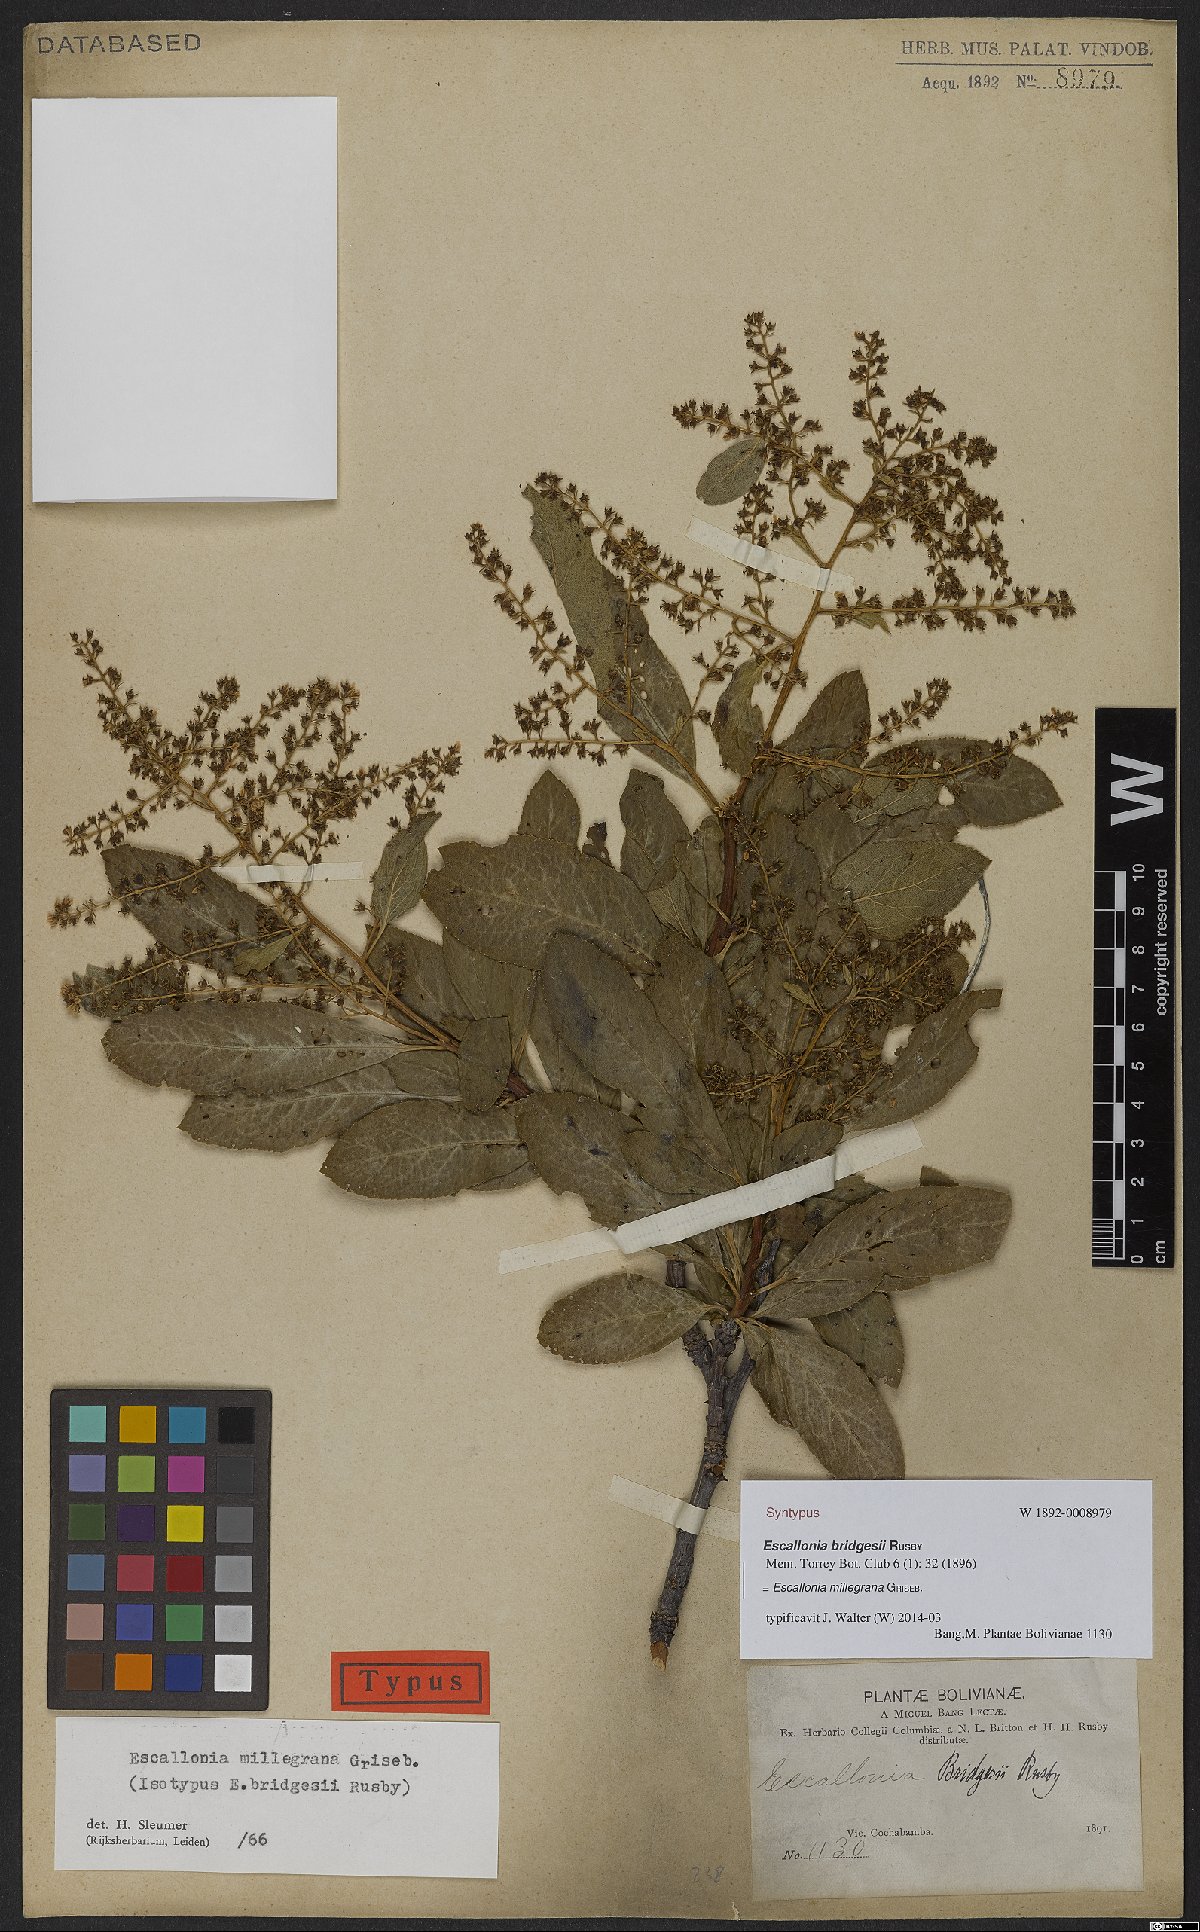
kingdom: Plantae
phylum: Tracheophyta
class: Magnoliopsida
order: Escalloniales
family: Escalloniaceae
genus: Escallonia
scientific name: Escallonia millegrana
